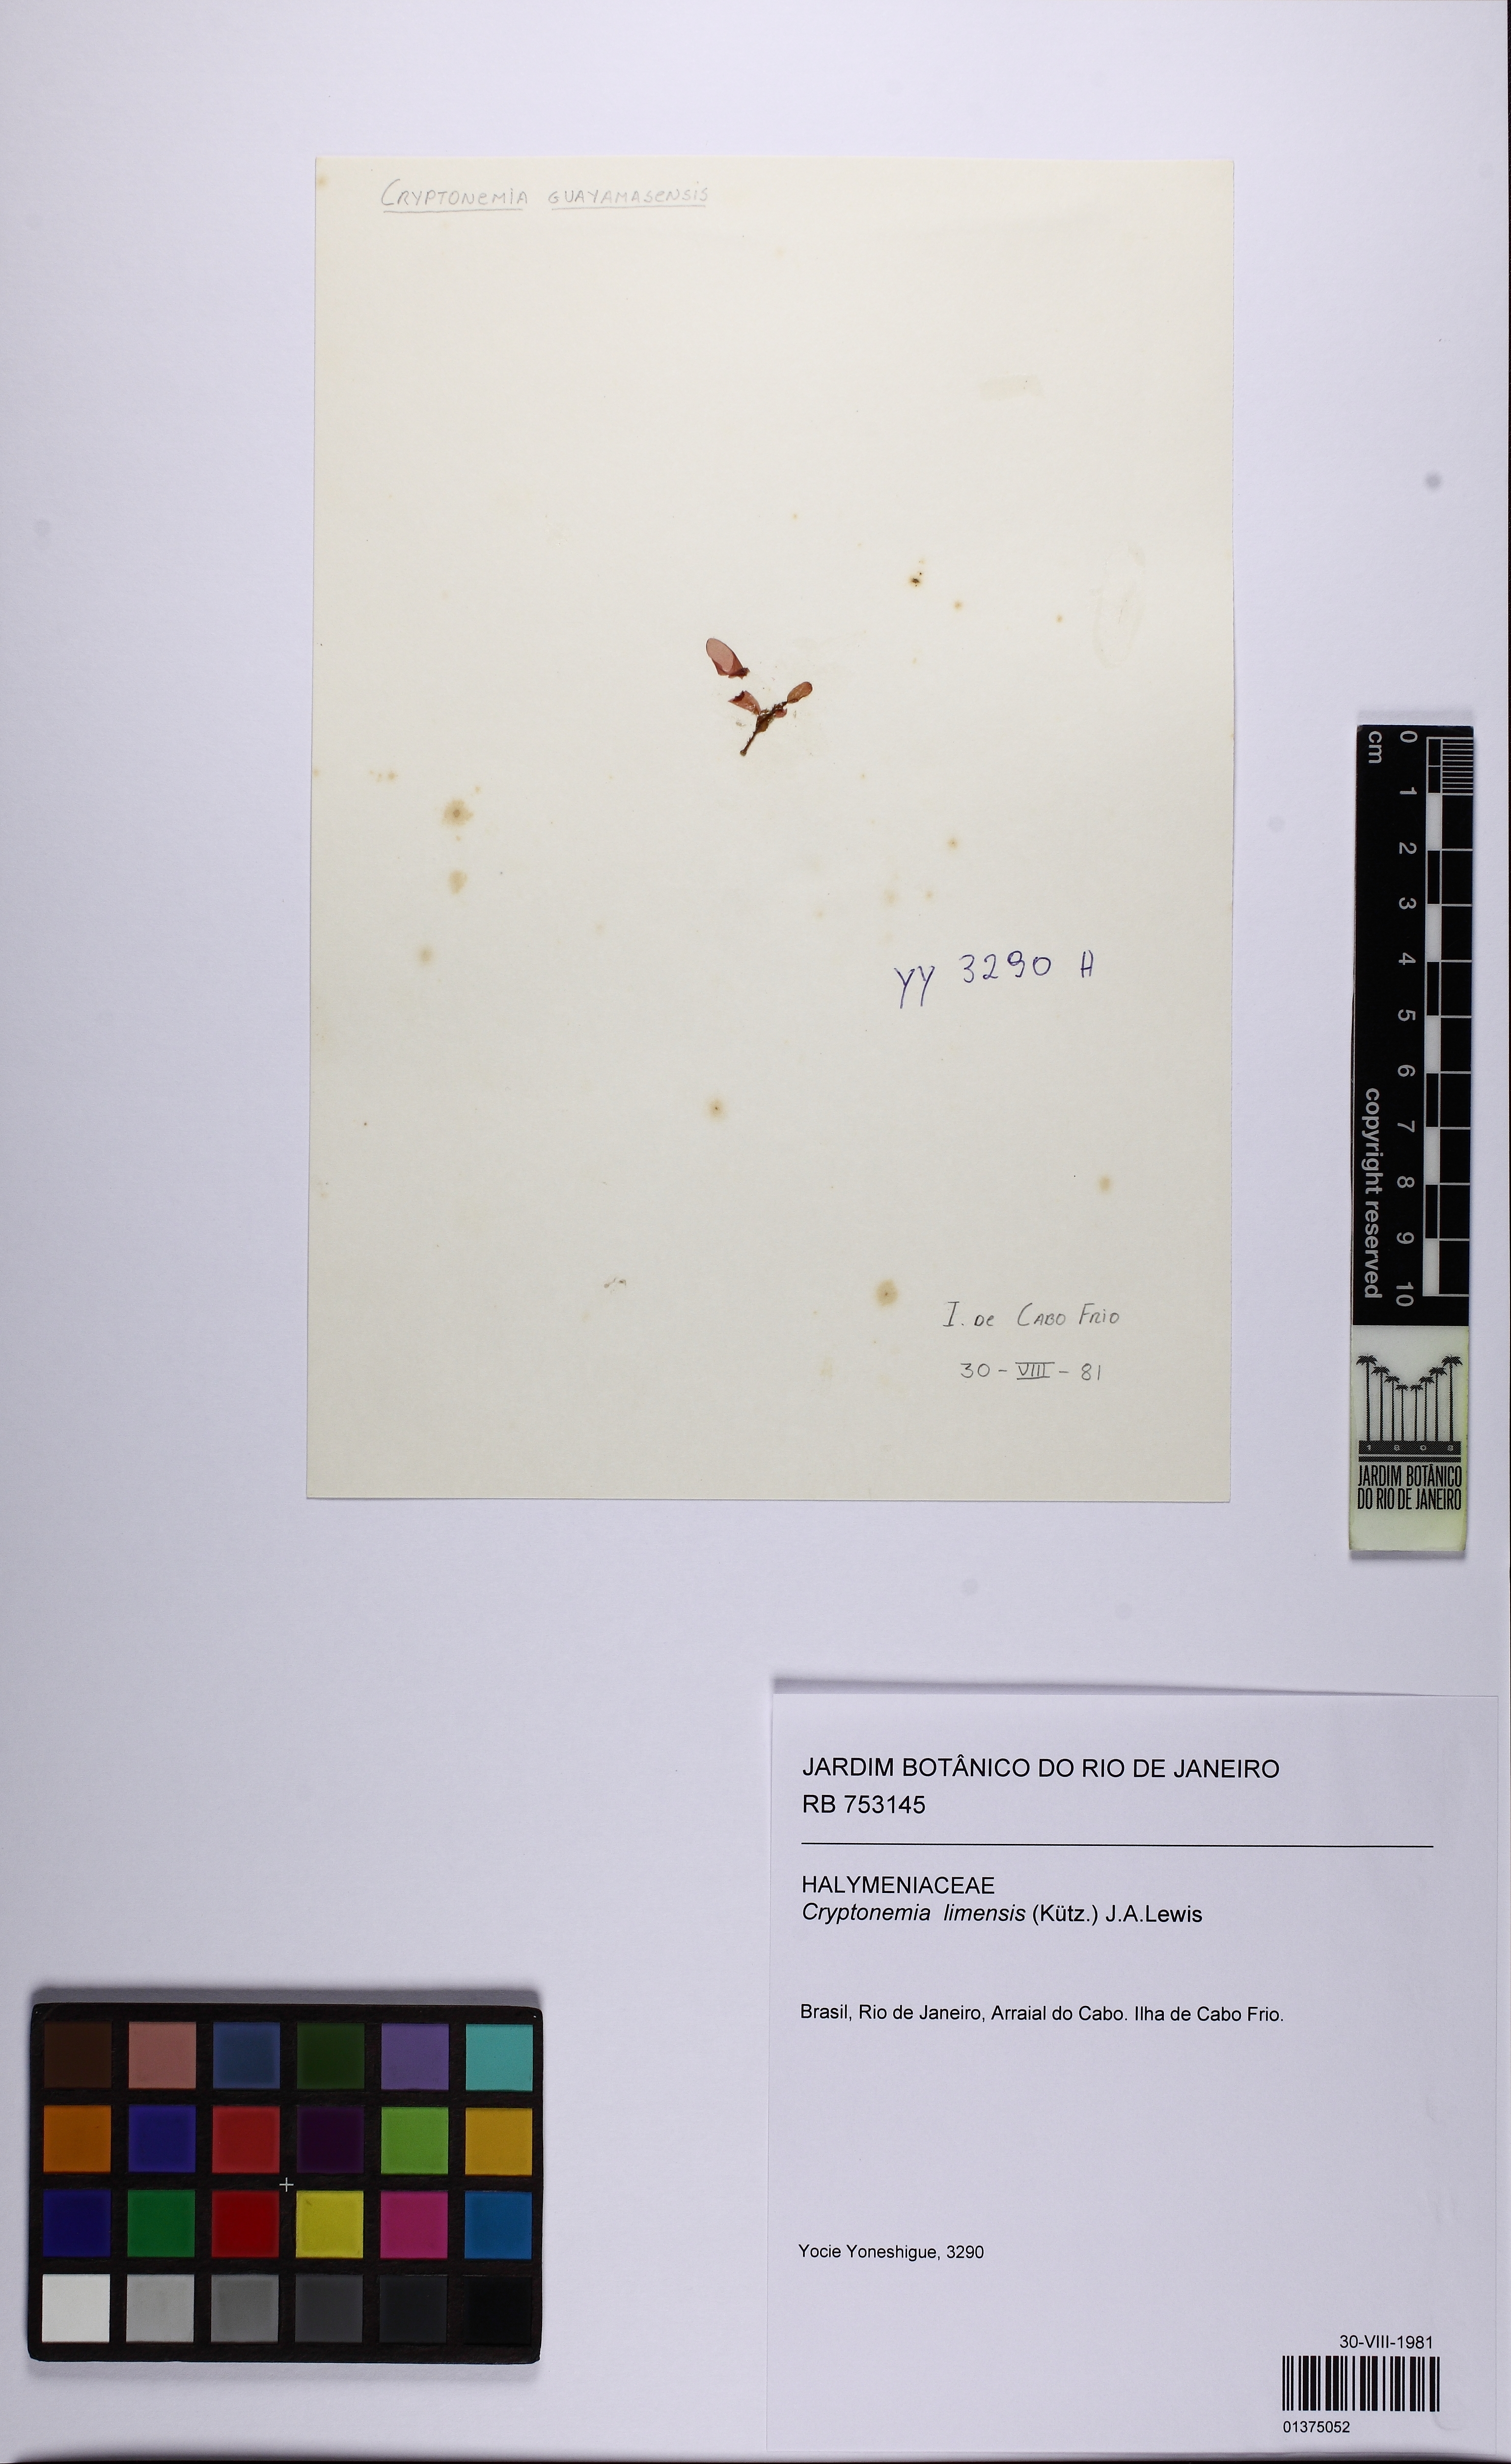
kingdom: Plantae
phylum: Rhodophyta
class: Florideophyceae
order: Halymeniales
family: Halymeniaceae
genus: Cryptonemia
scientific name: Cryptonemia limensis
